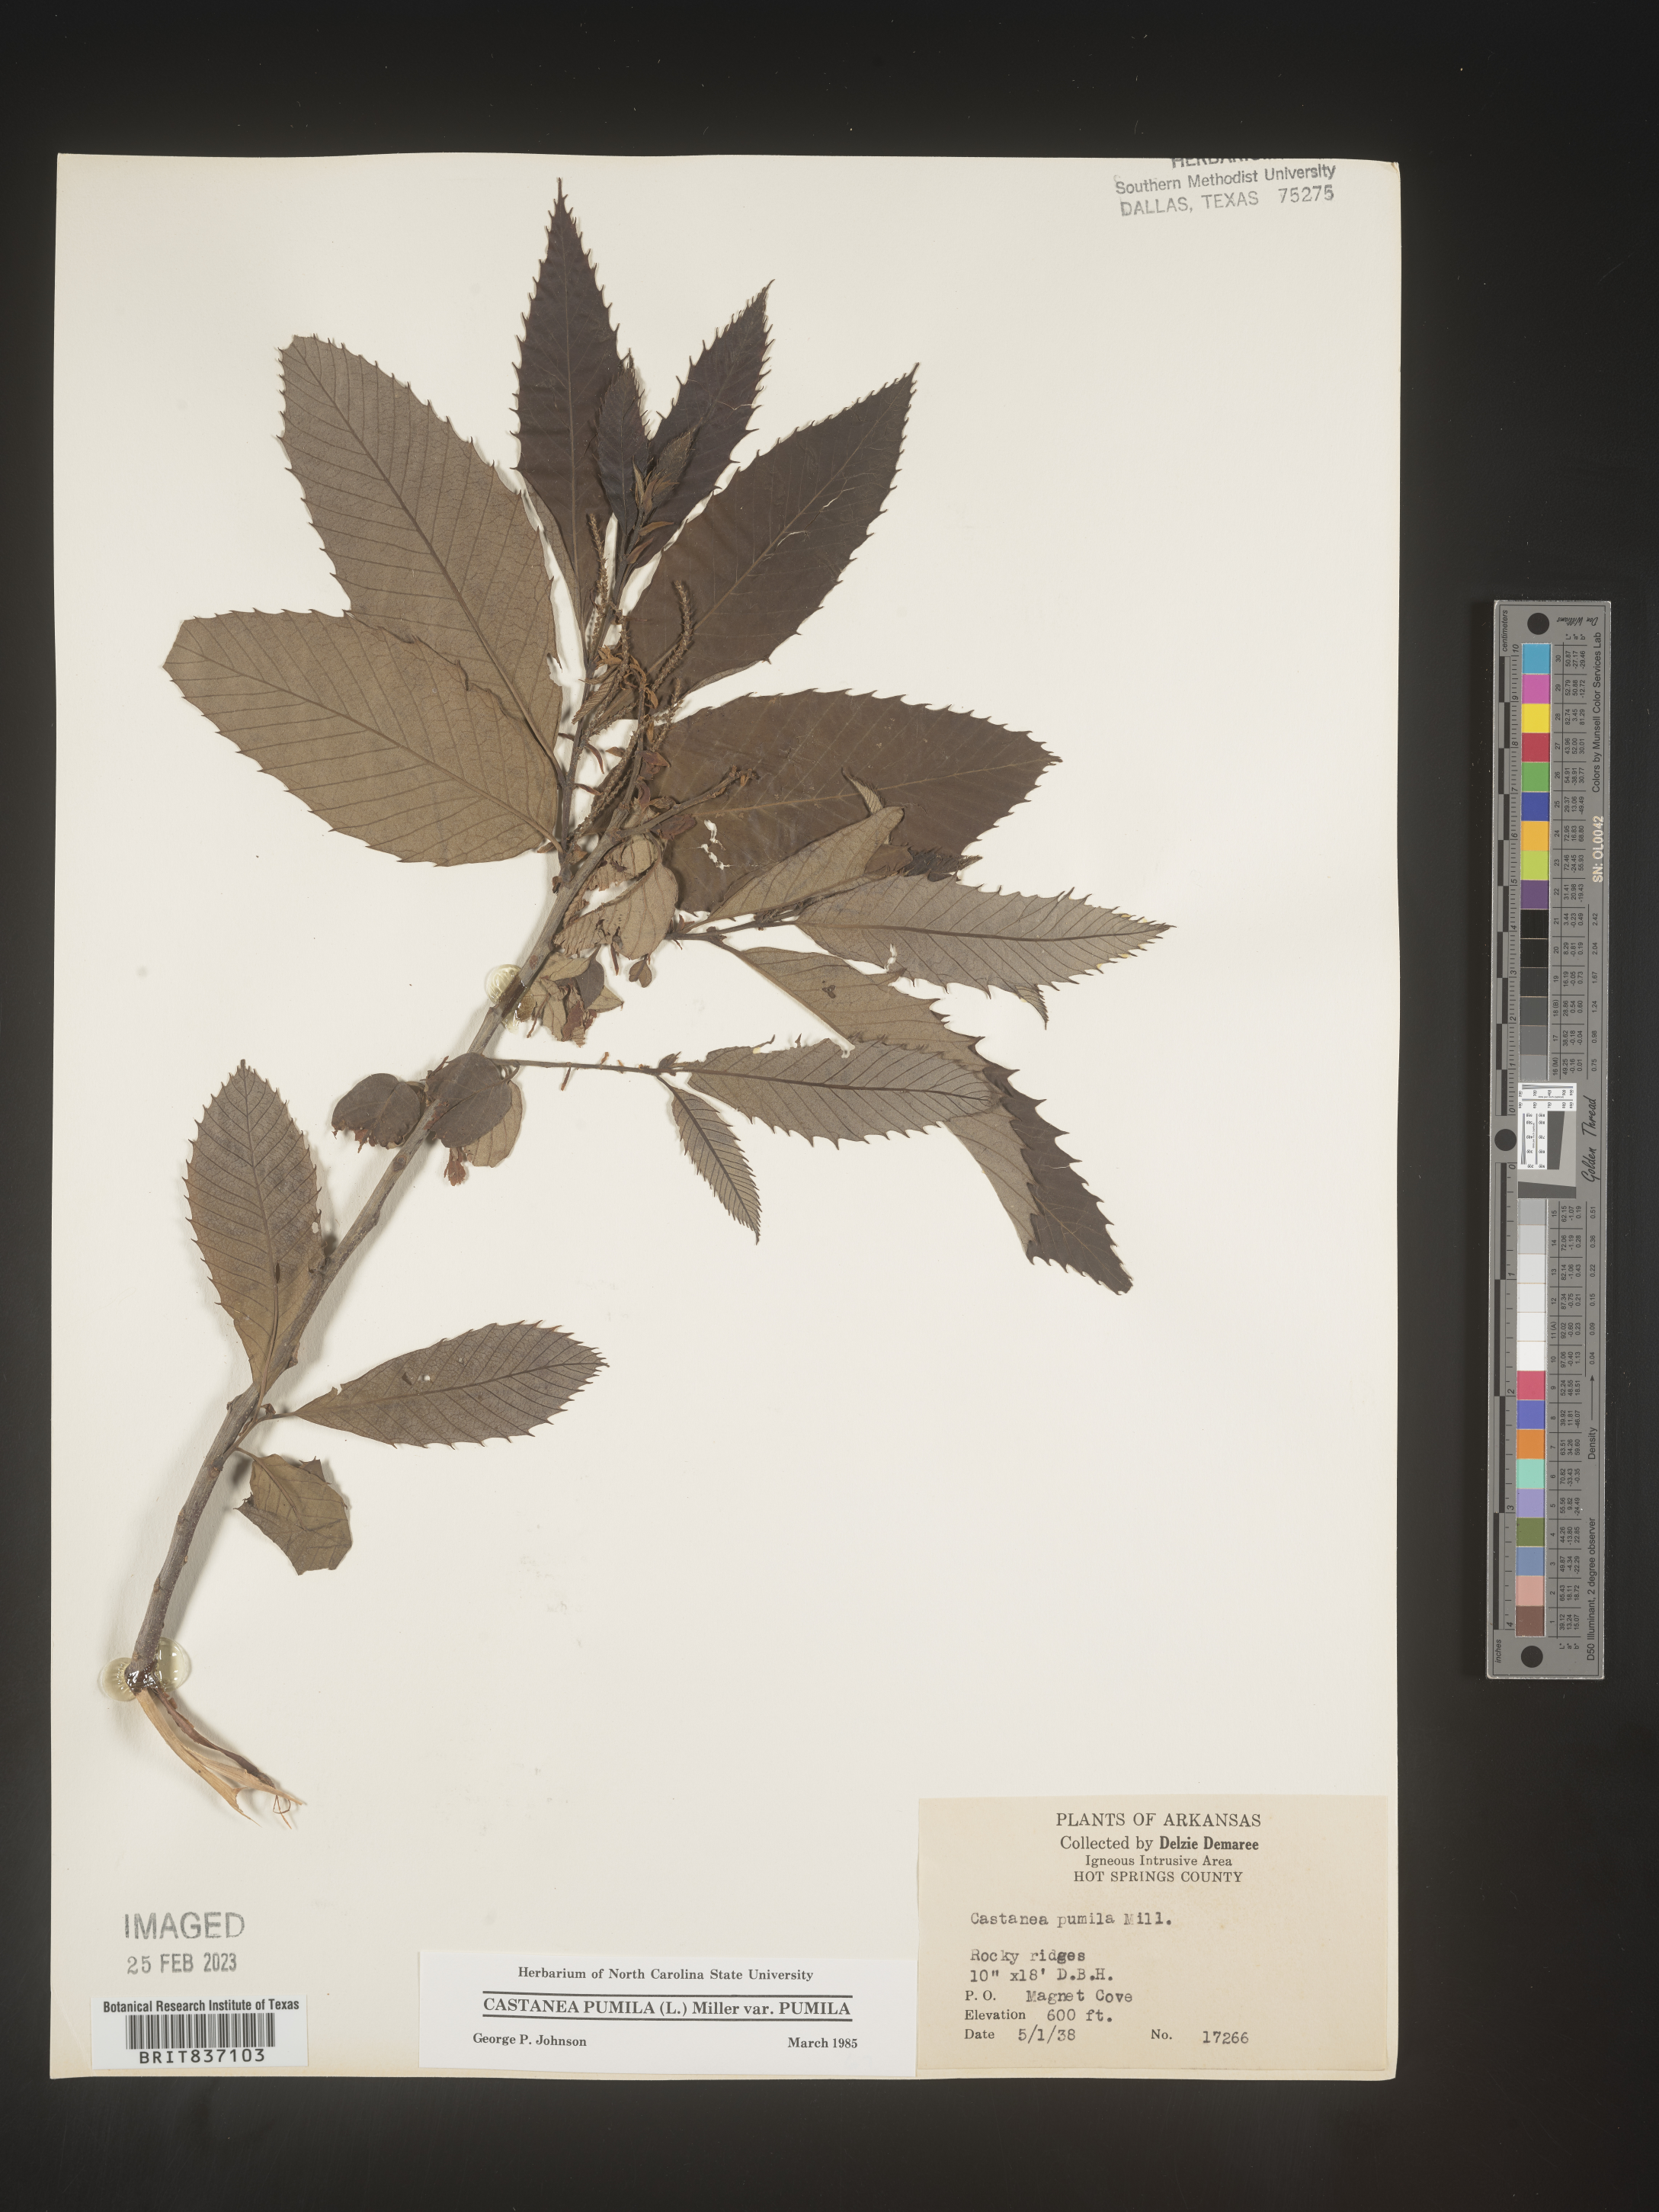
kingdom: Plantae
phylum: Tracheophyta
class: Magnoliopsida
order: Fagales
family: Fagaceae
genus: Castanea
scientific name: Castanea pumila
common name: Chinkapin
